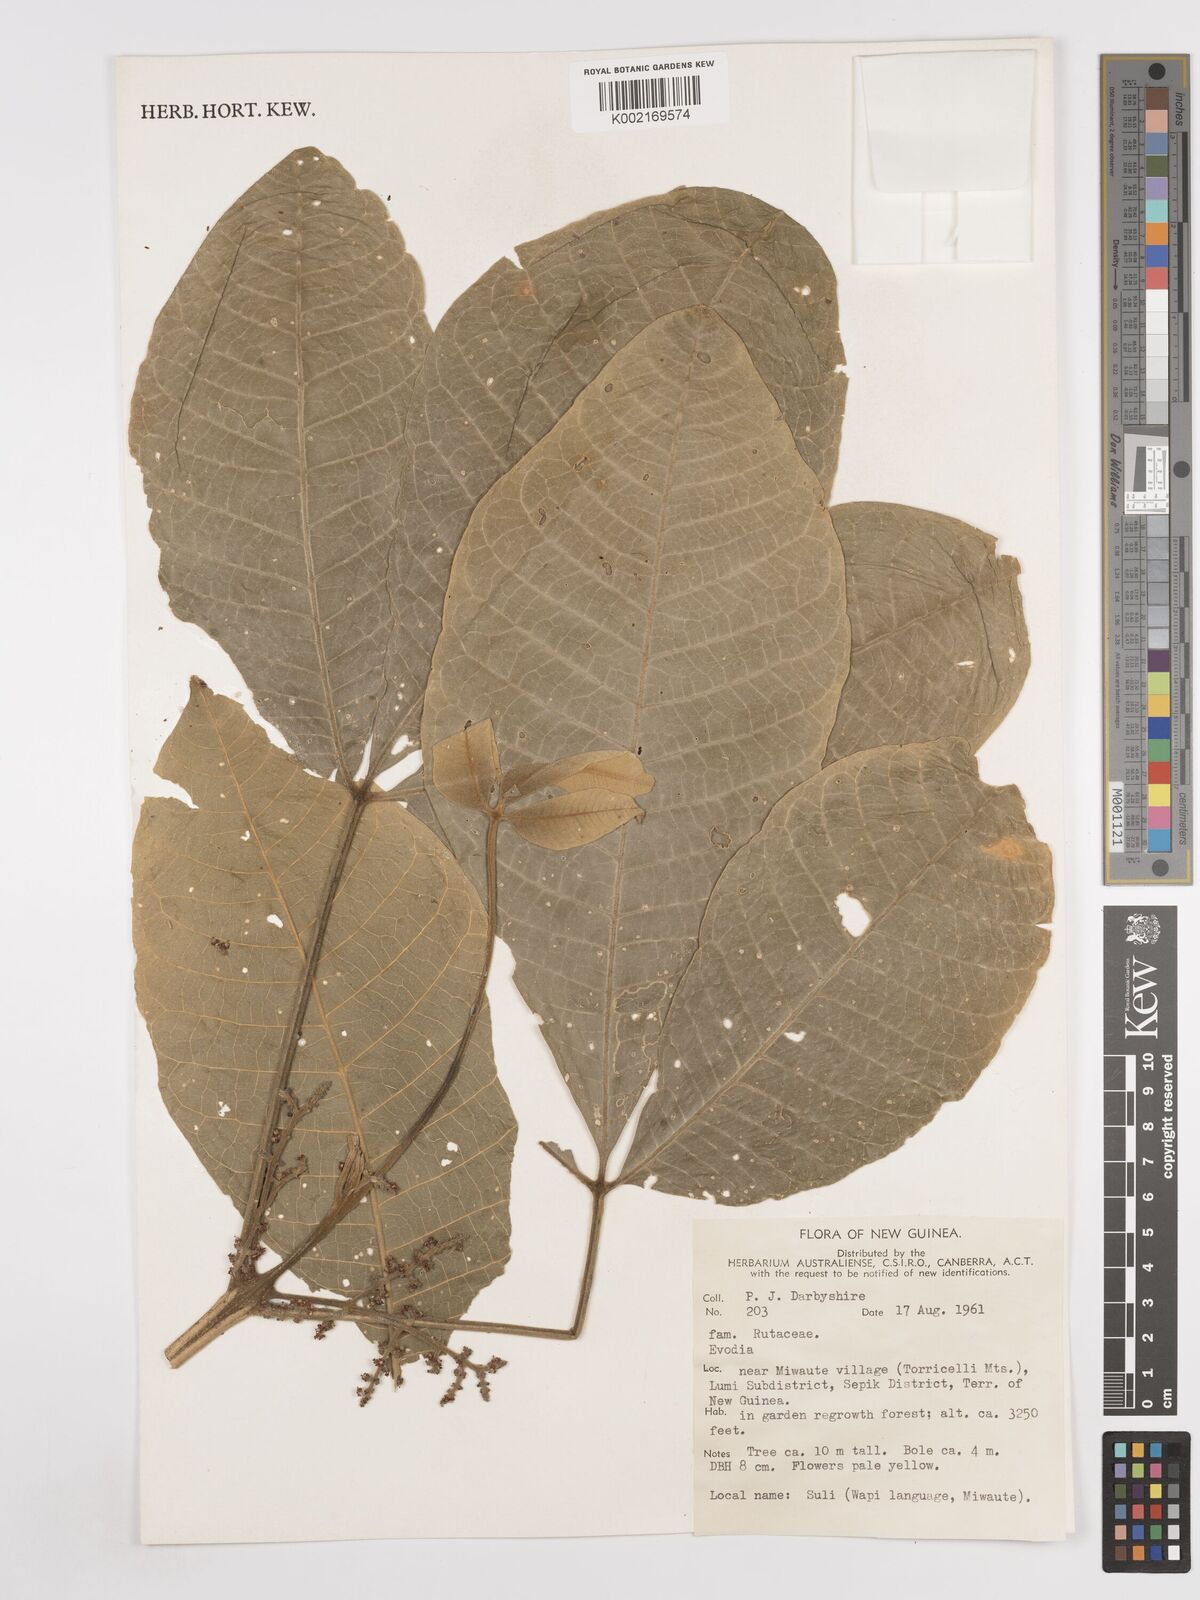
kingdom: Plantae
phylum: Tracheophyta
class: Magnoliopsida
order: Sapindales
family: Rutaceae
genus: Euodia
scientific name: Euodia
